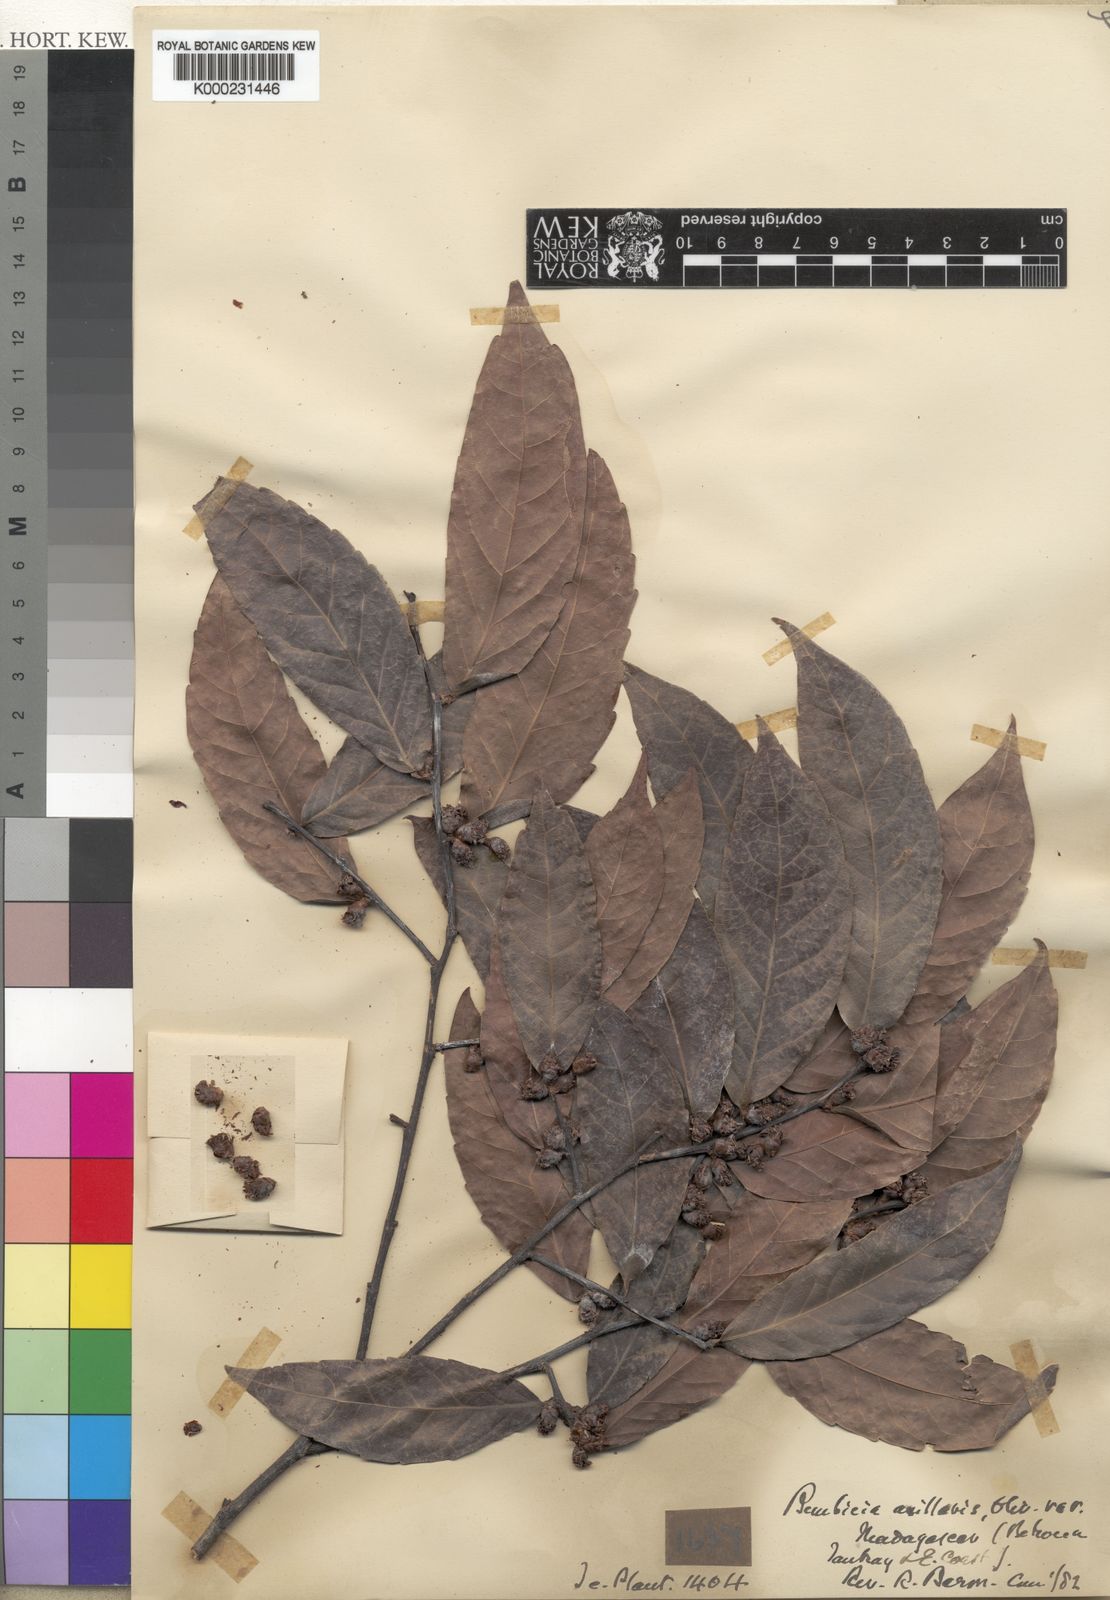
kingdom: Plantae
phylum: Tracheophyta
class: Magnoliopsida
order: Malpighiales
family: Salicaceae
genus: Bembicia
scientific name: Bembicia
